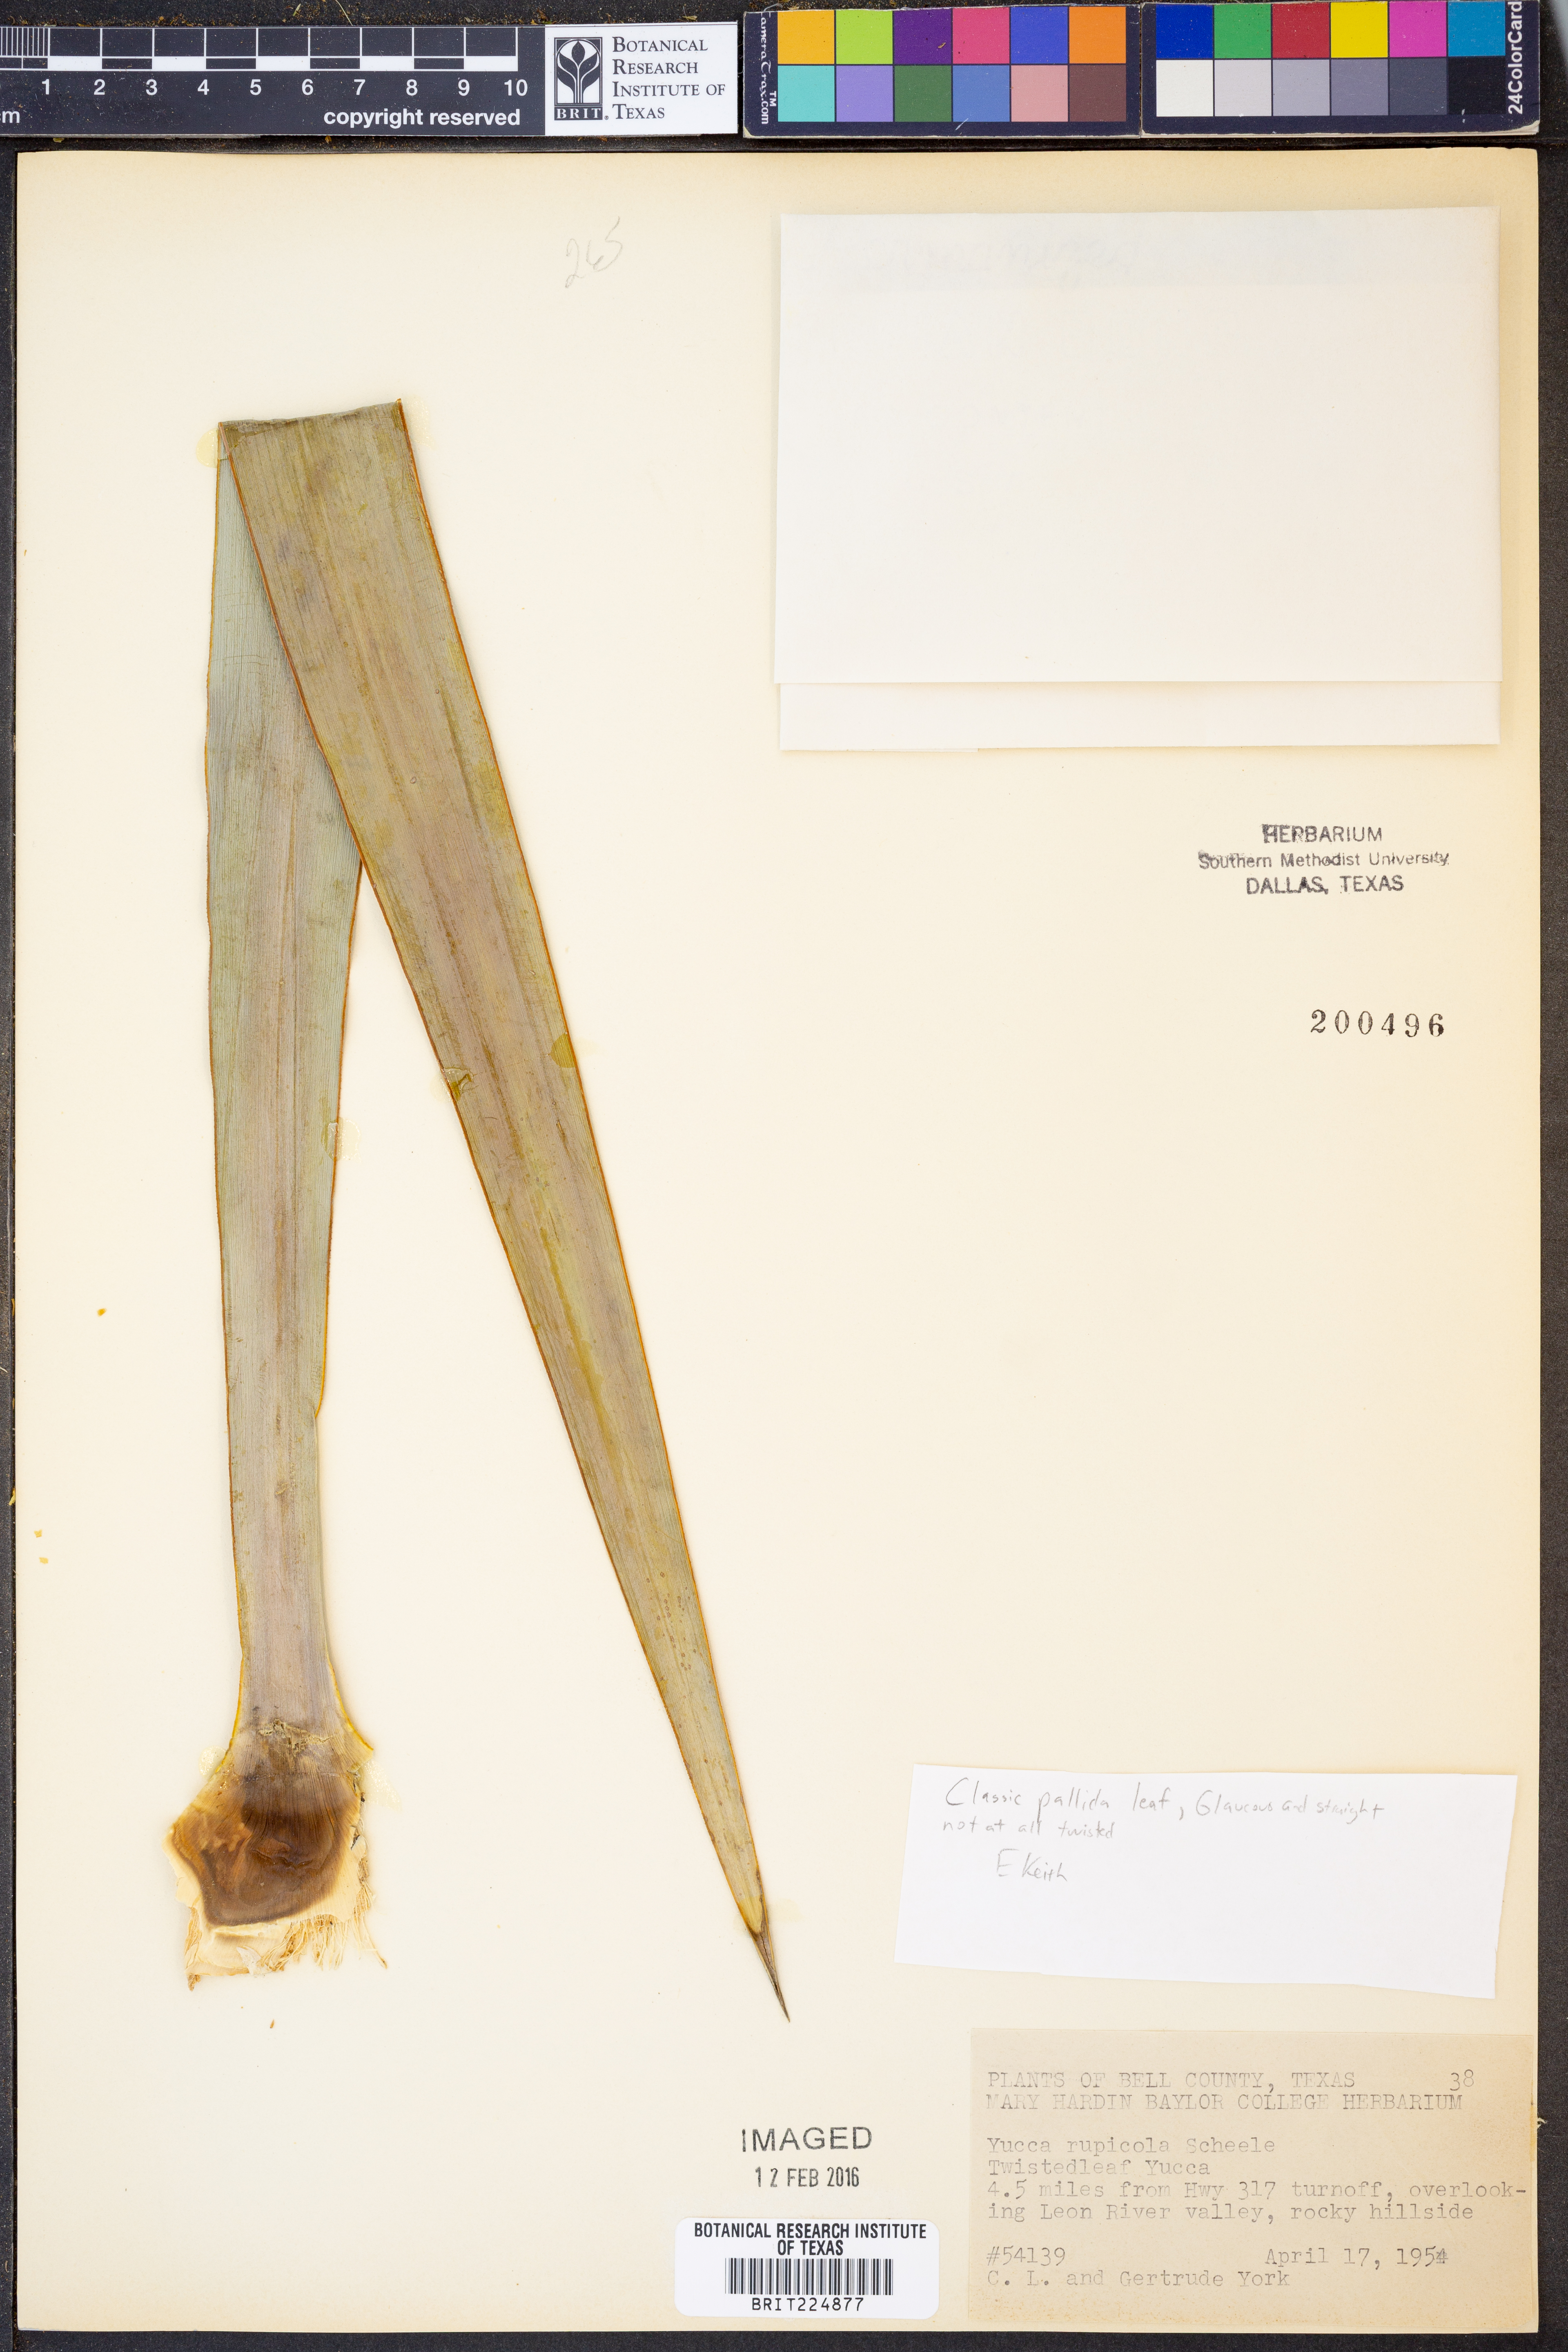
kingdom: Plantae
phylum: Tracheophyta
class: Liliopsida
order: Asparagales
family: Asparagaceae
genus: Yucca
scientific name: Yucca rupicola
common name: Twisted-leaf spanish-dagger
